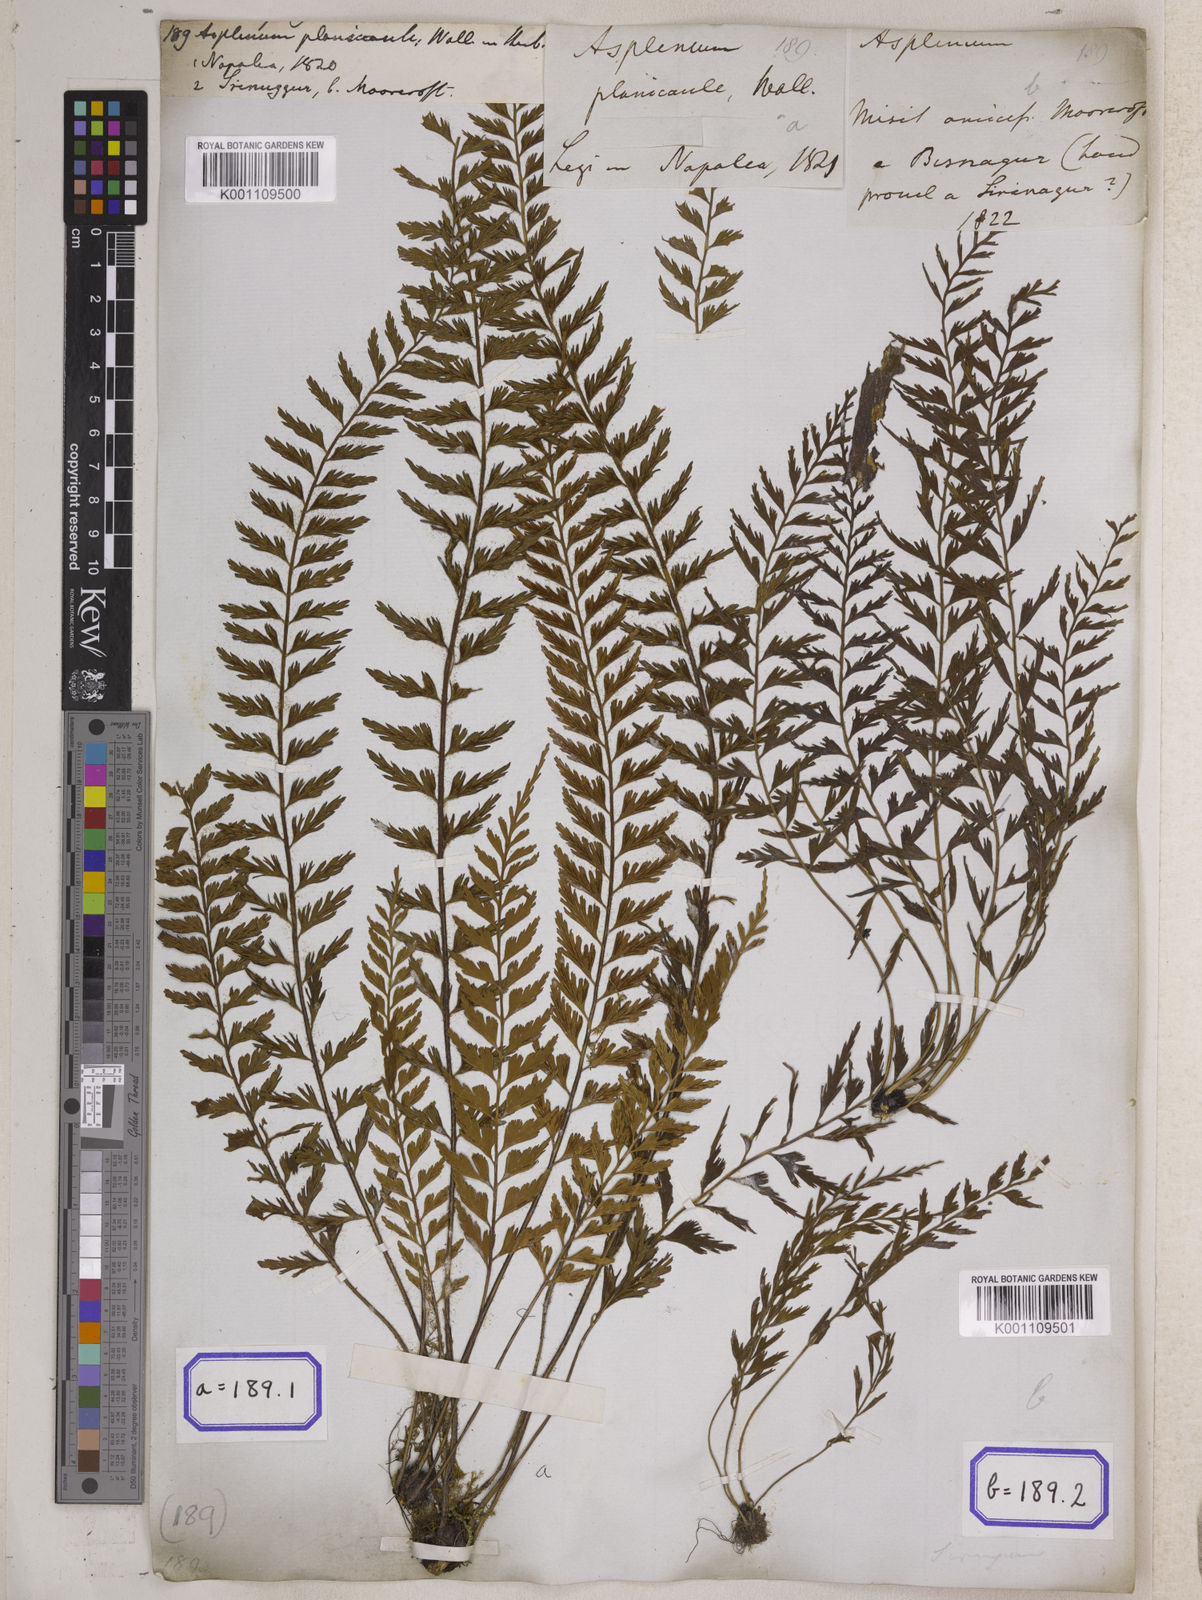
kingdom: Plantae
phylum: Tracheophyta
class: Polypodiopsida
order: Polypodiales
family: Aspleniaceae
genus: Asplenium
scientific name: Asplenium yoshinagae
